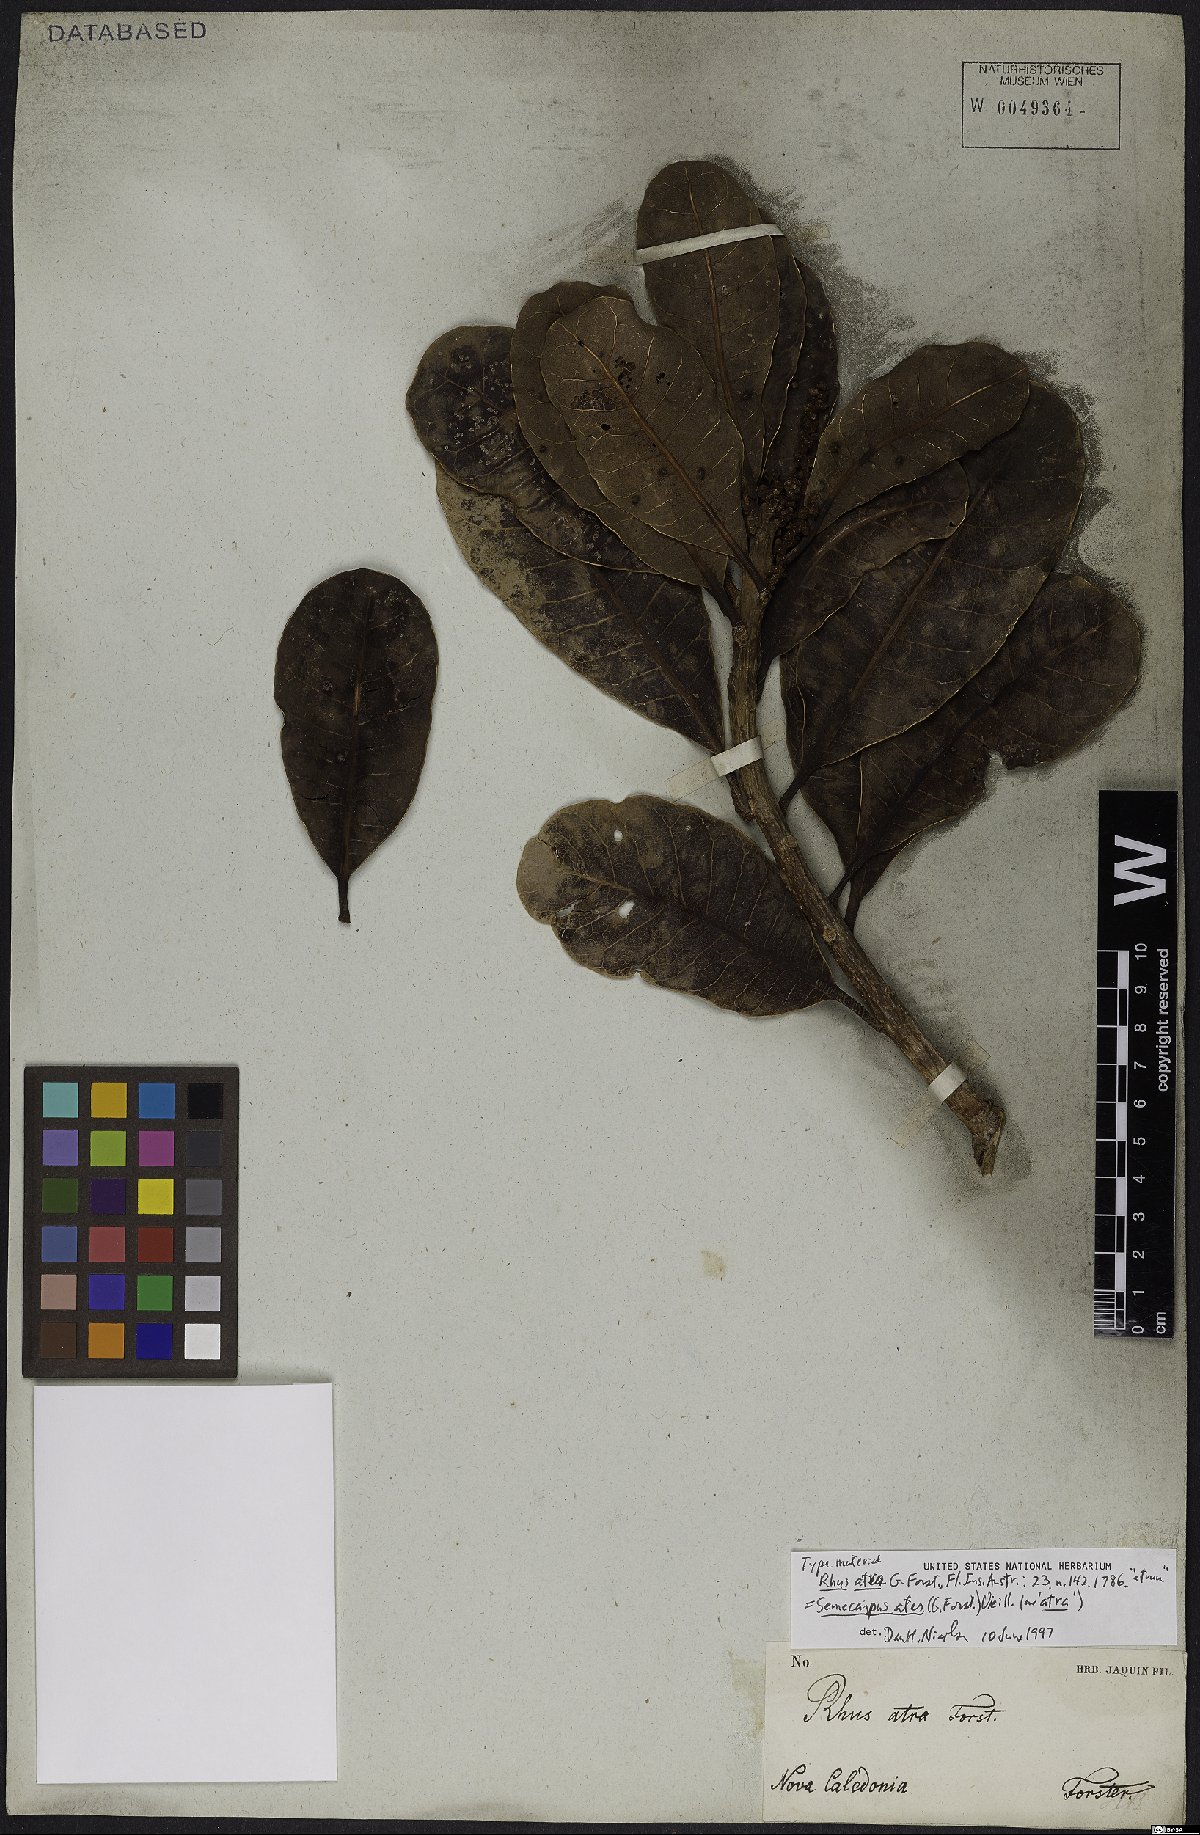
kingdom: Plantae
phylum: Tracheophyta
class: Magnoliopsida
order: Sapindales
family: Anacardiaceae
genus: Semecarpus
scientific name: Semecarpus atra
